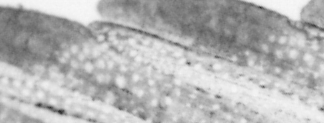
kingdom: Animalia
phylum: Chordata
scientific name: Chordata
